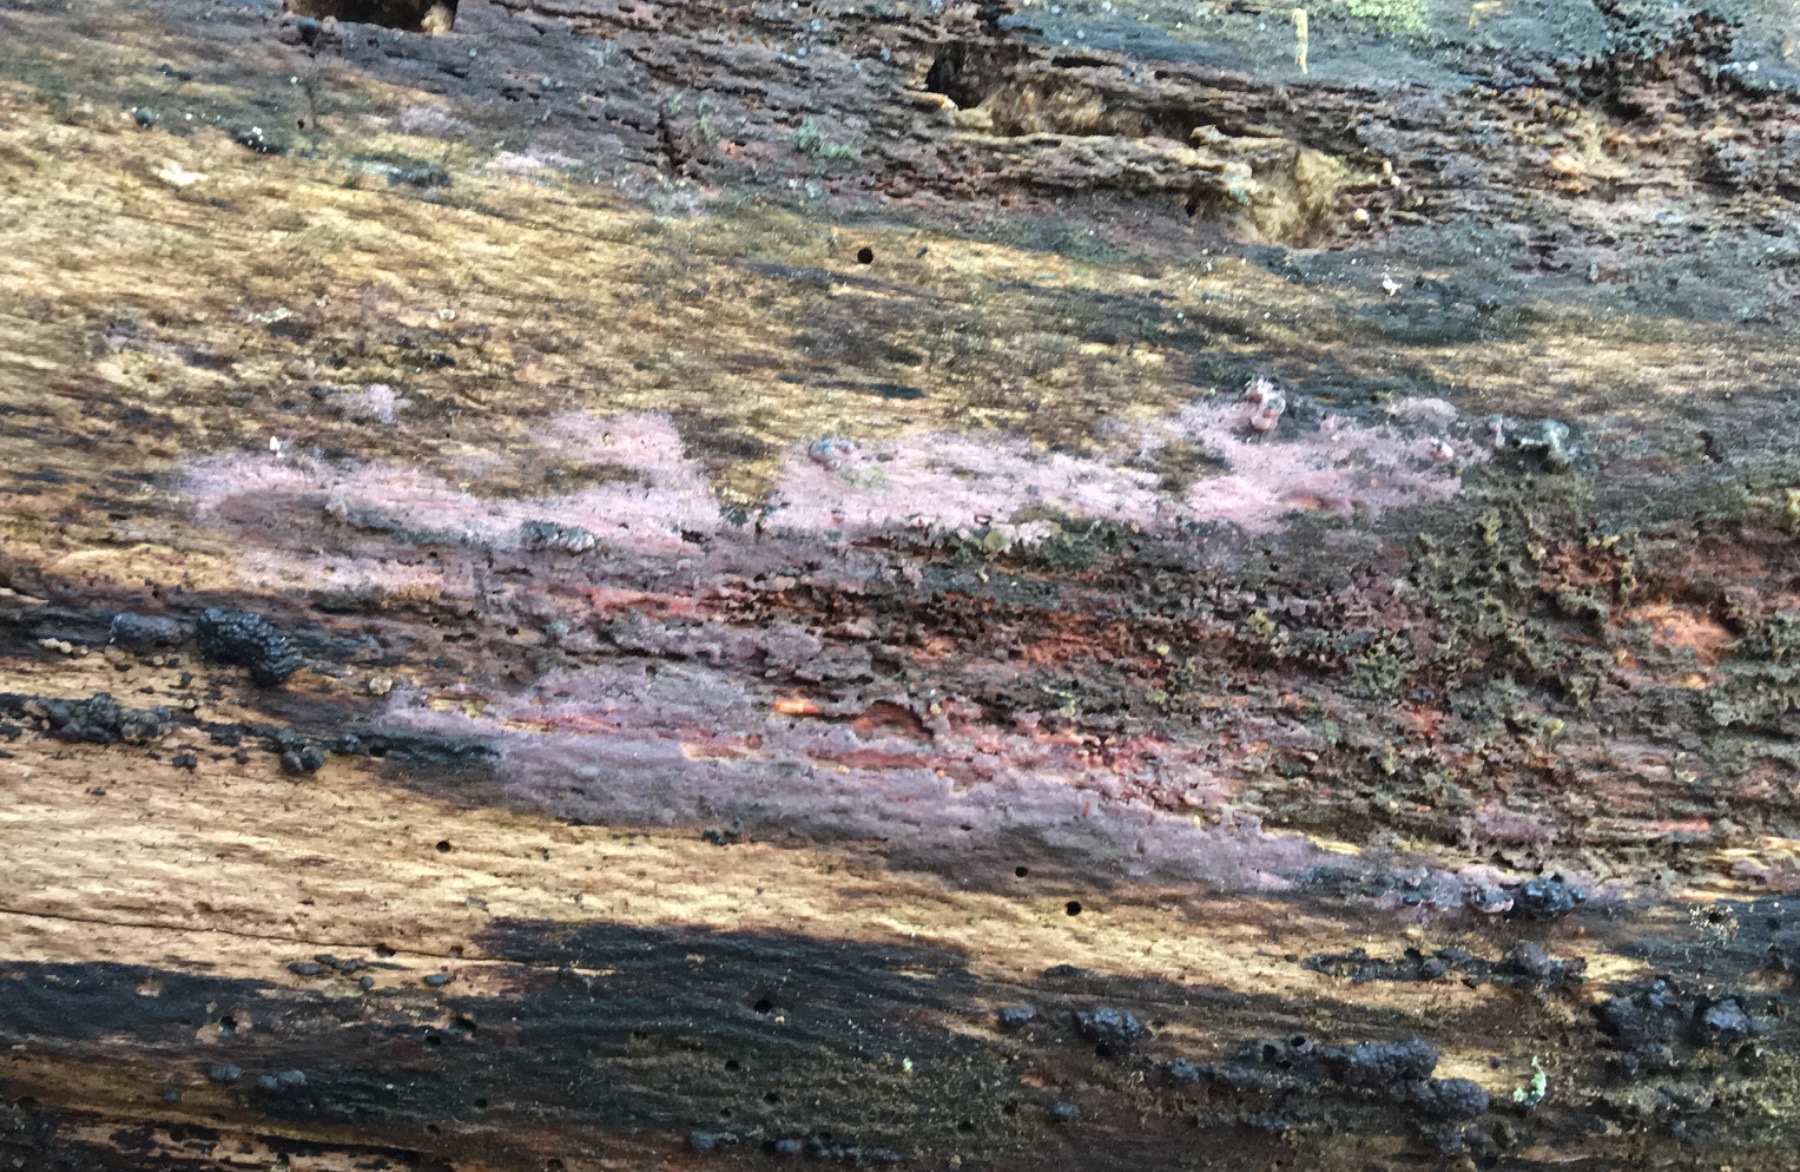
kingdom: Fungi
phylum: Basidiomycota
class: Agaricomycetes
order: Cantharellales
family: Tulasnellaceae
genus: Tulasnella
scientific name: Tulasnella violea
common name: violet ballonhinde
